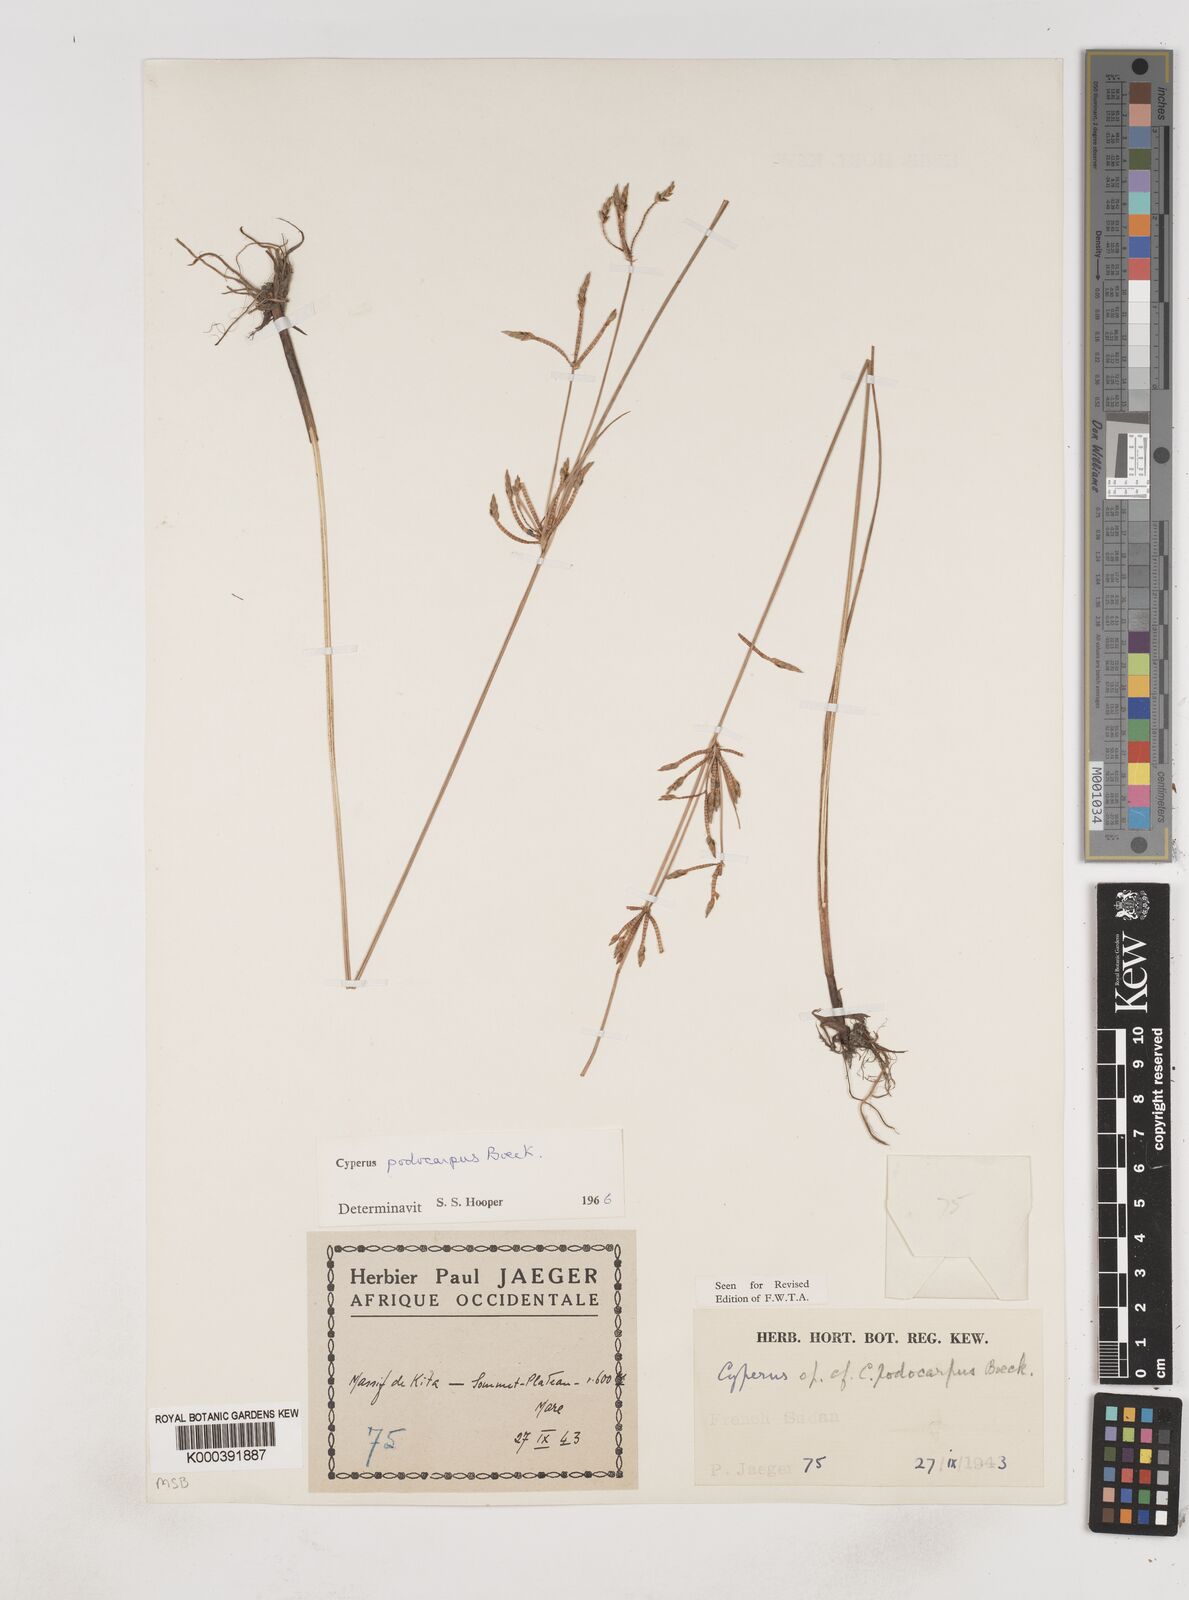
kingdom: Plantae
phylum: Tracheophyta
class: Liliopsida
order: Poales
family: Cyperaceae
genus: Cyperus
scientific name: Cyperus podocarpus
